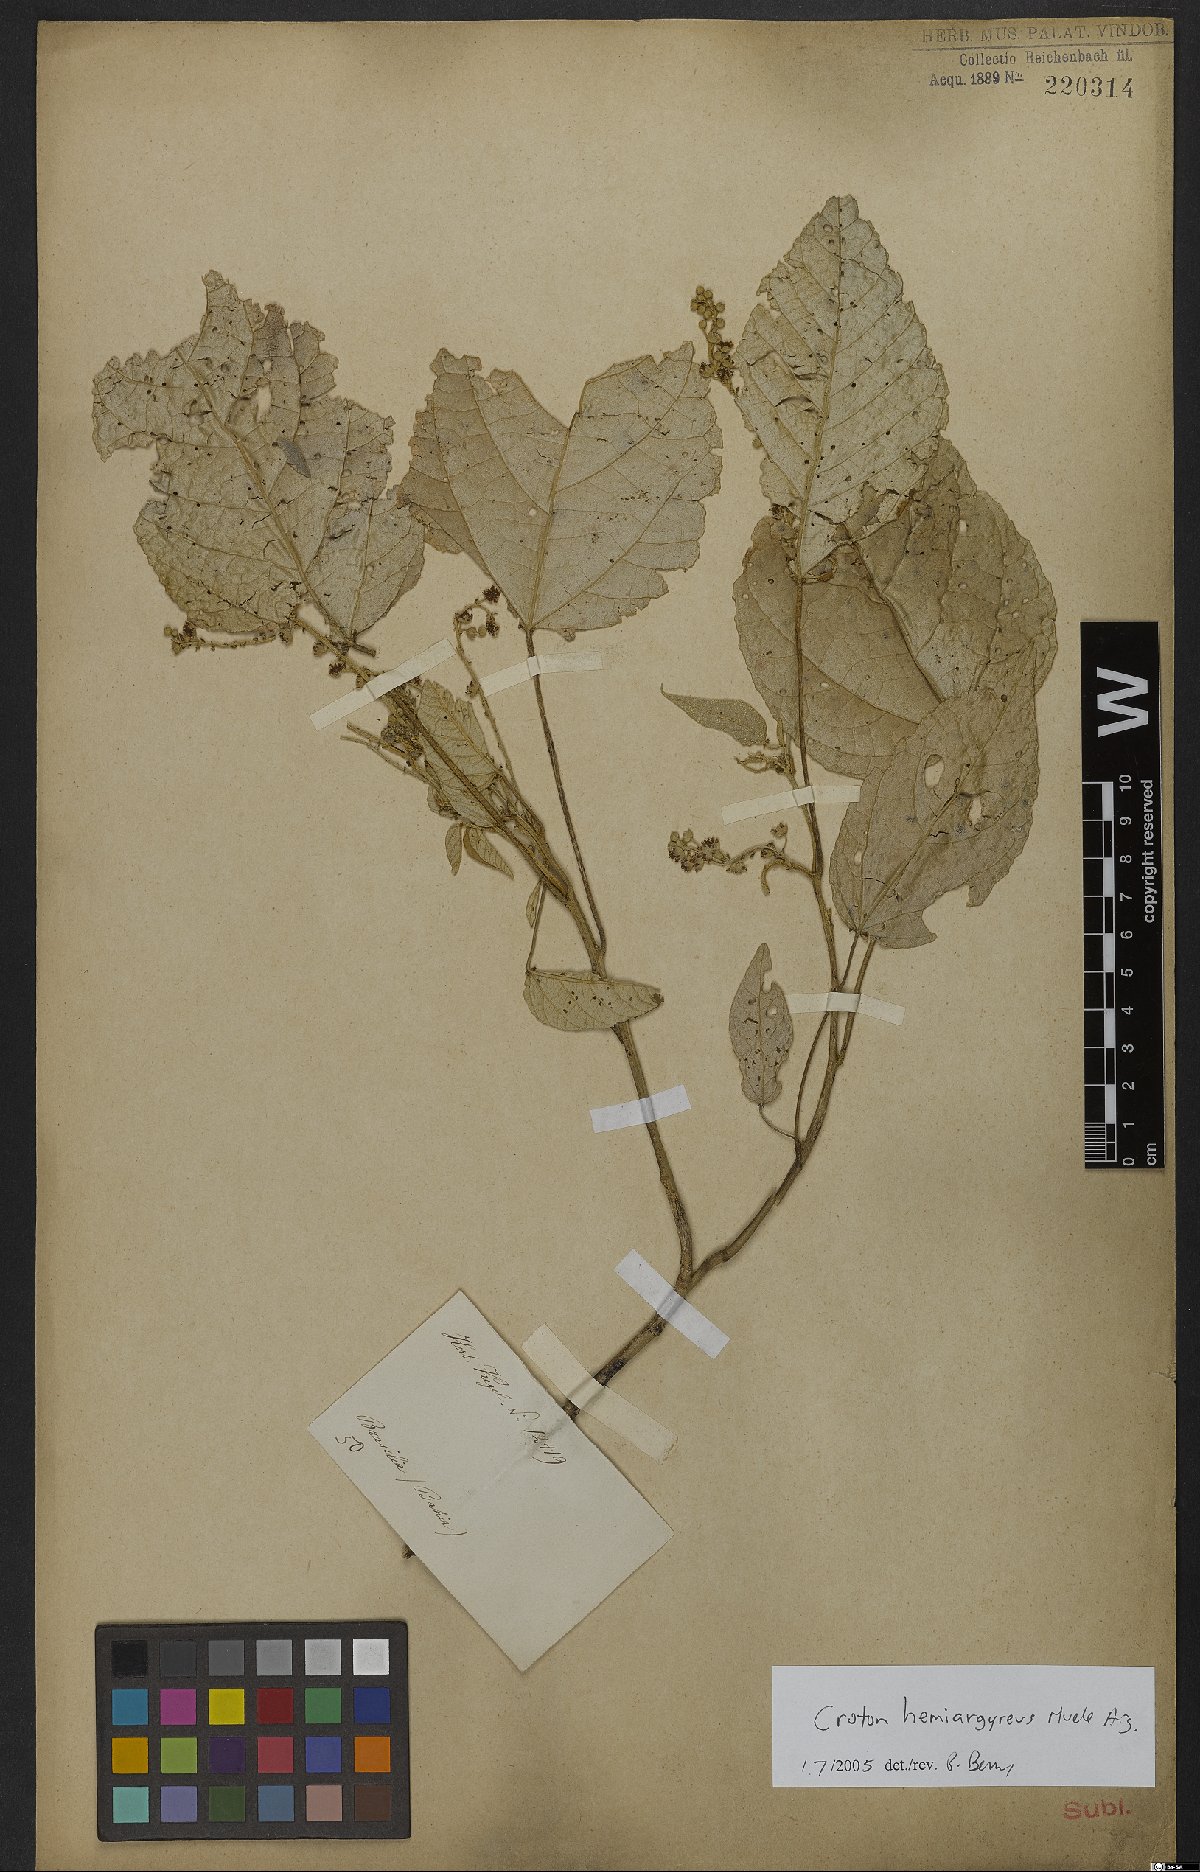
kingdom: Plantae
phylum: Tracheophyta
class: Magnoliopsida
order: Malpighiales
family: Euphorbiaceae
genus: Croton
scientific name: Croton hemiargyreus
